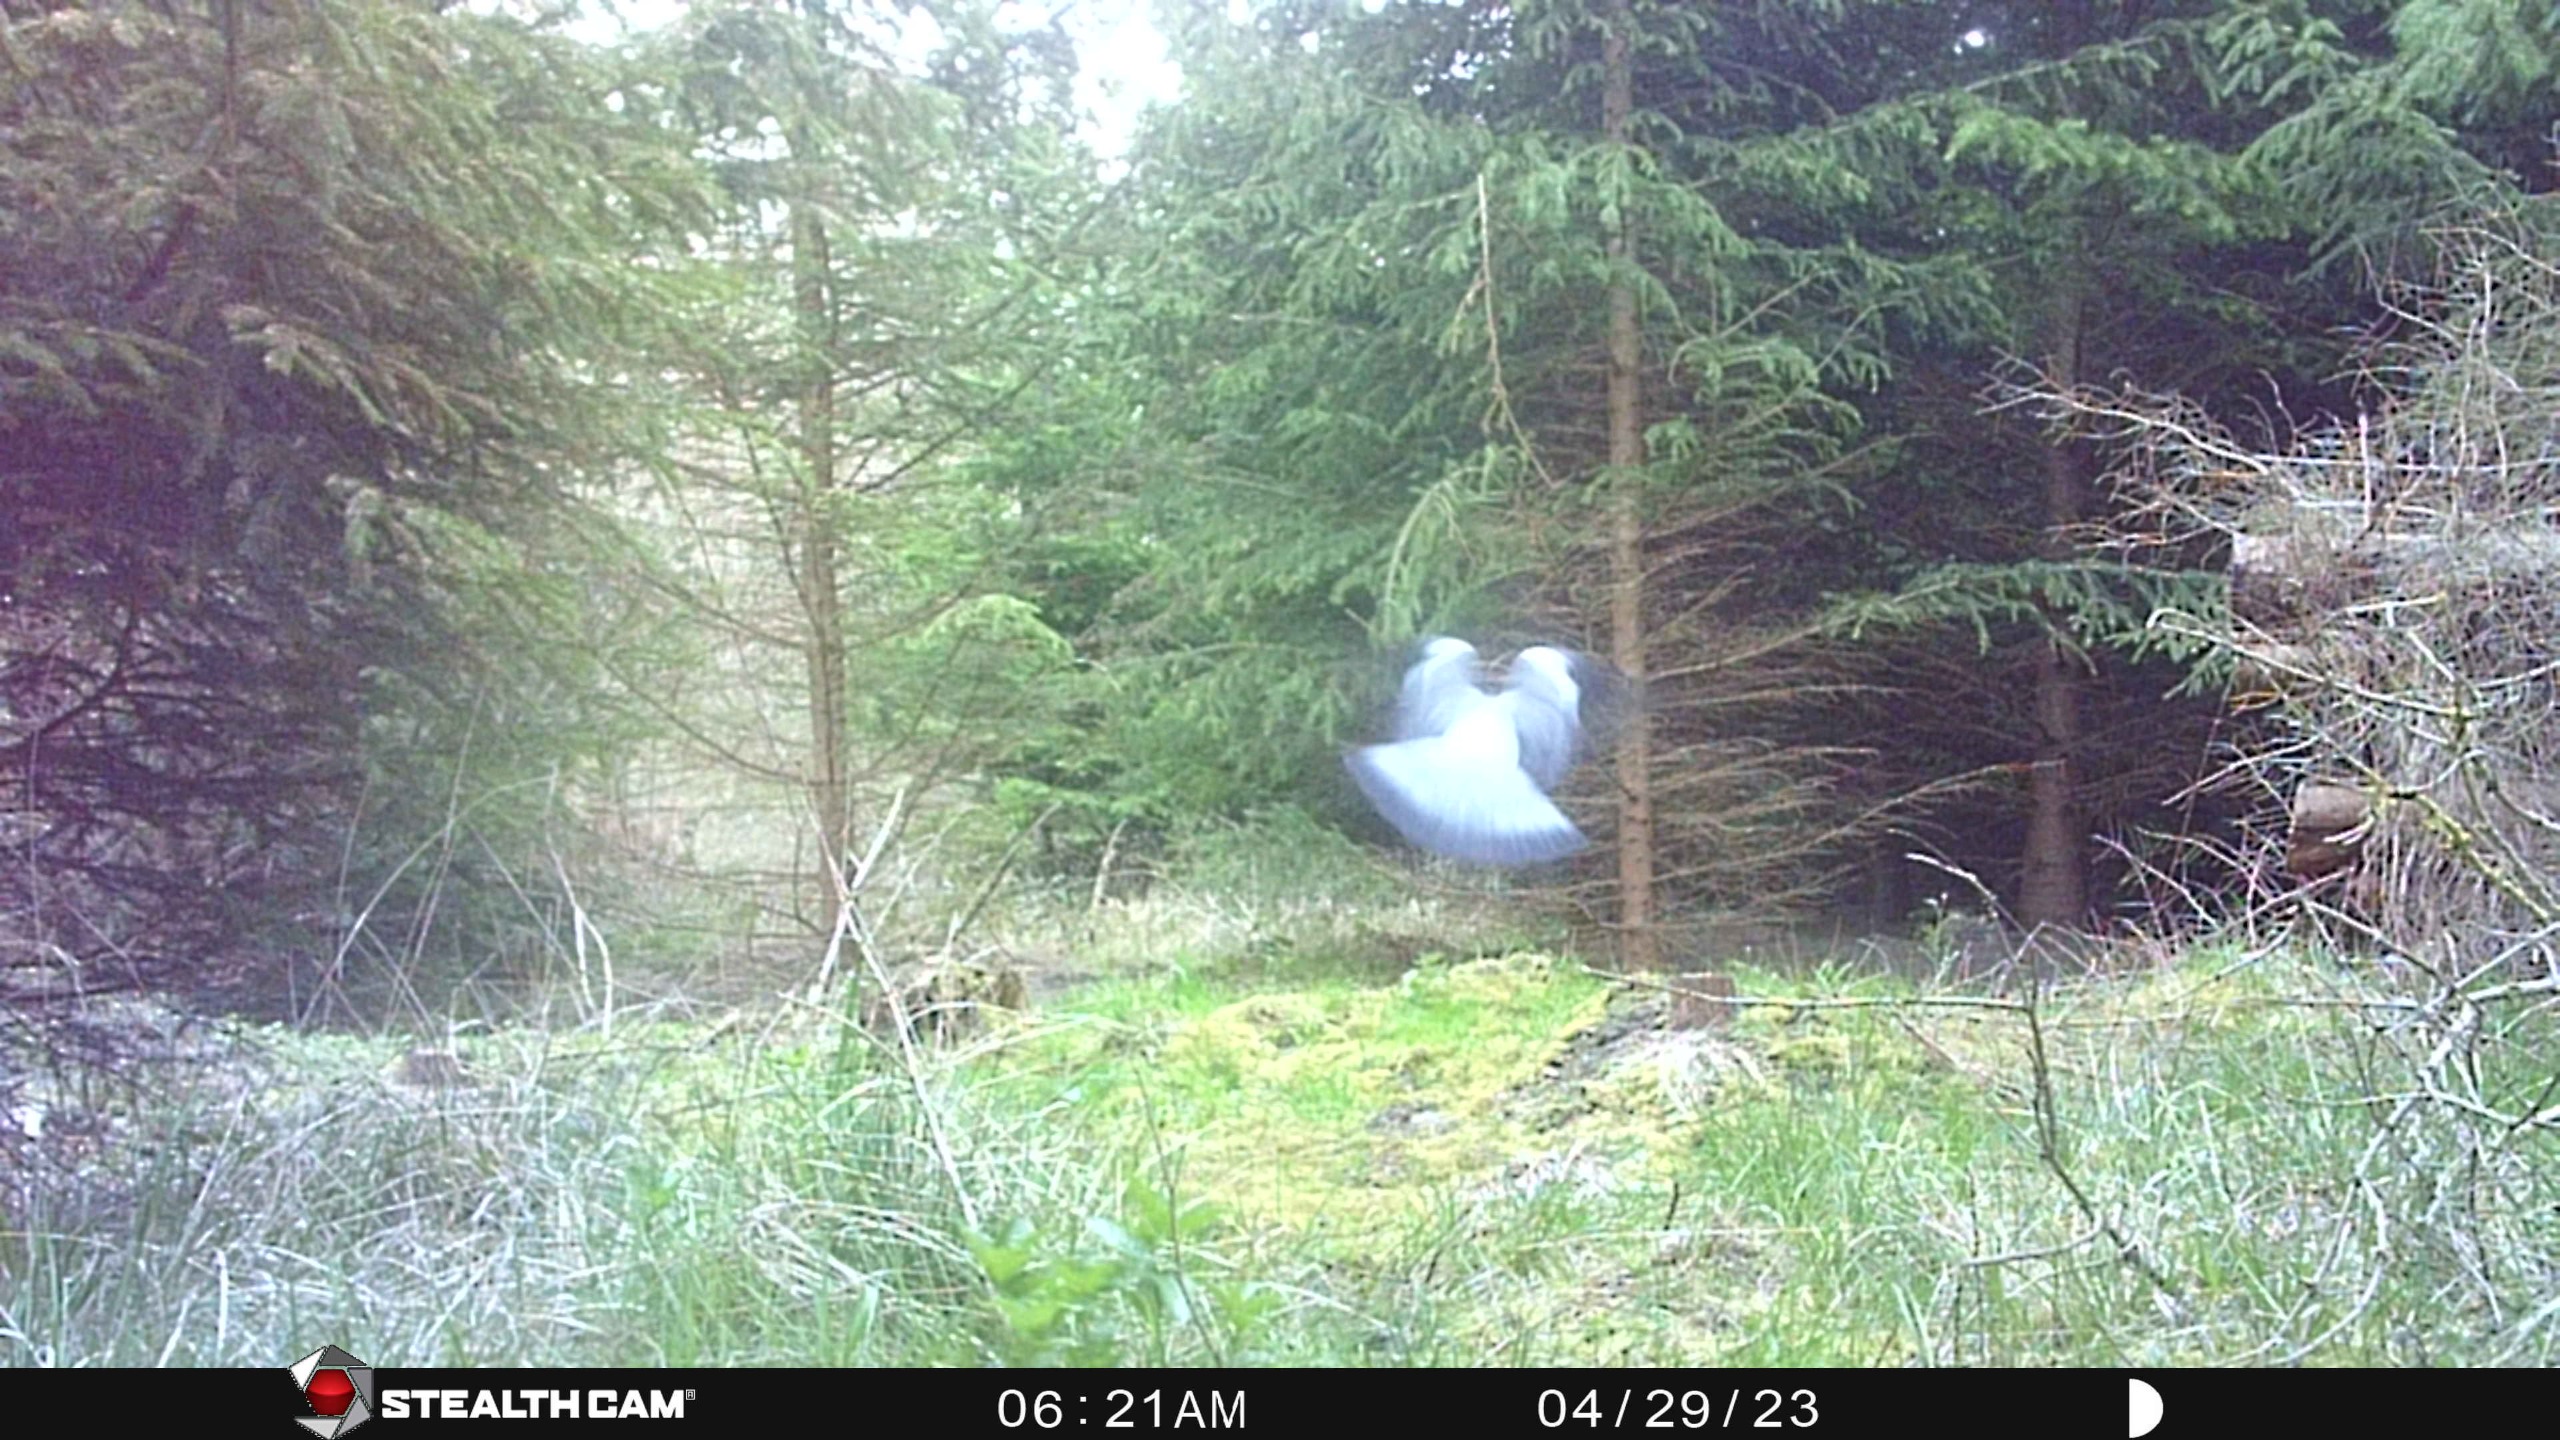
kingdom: Animalia
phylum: Chordata
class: Aves
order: Columbiformes
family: Columbidae
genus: Columba
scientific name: Columba palumbus
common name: Ringdue
